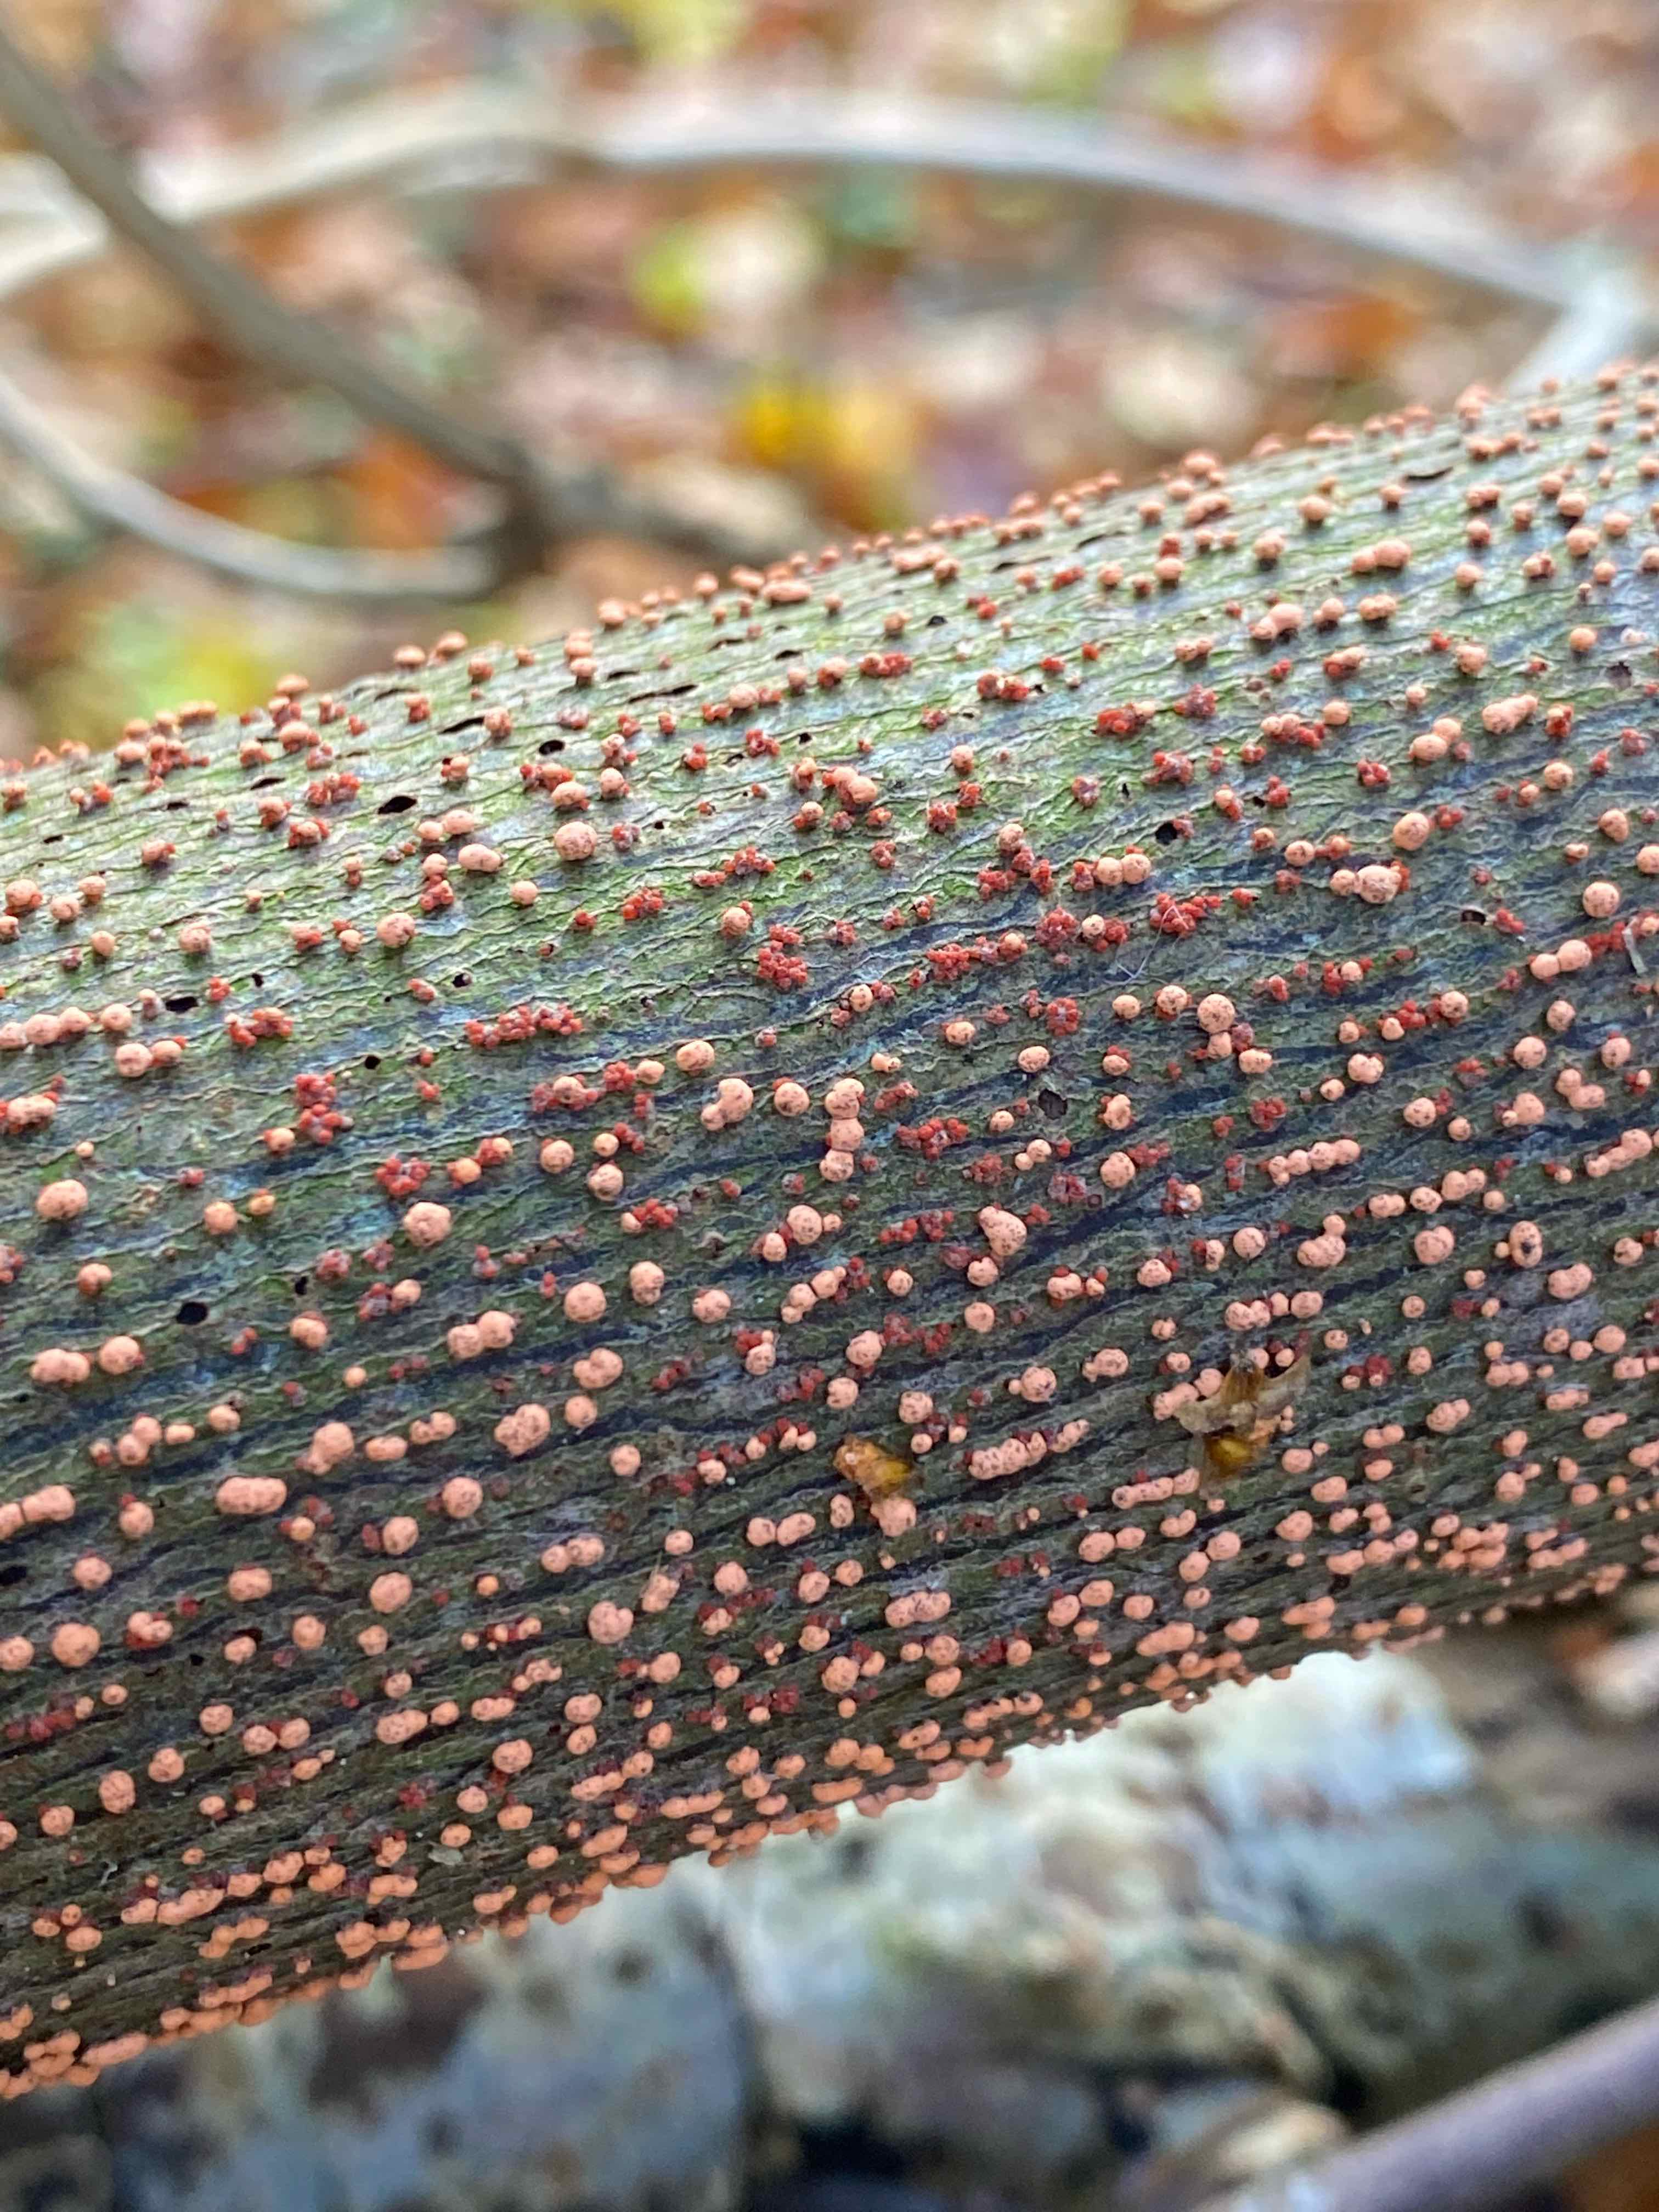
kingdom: Fungi
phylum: Ascomycota
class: Sordariomycetes
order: Hypocreales
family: Nectriaceae
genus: Nectria
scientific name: Nectria cinnabarina
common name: almindelig cinnobersvamp
